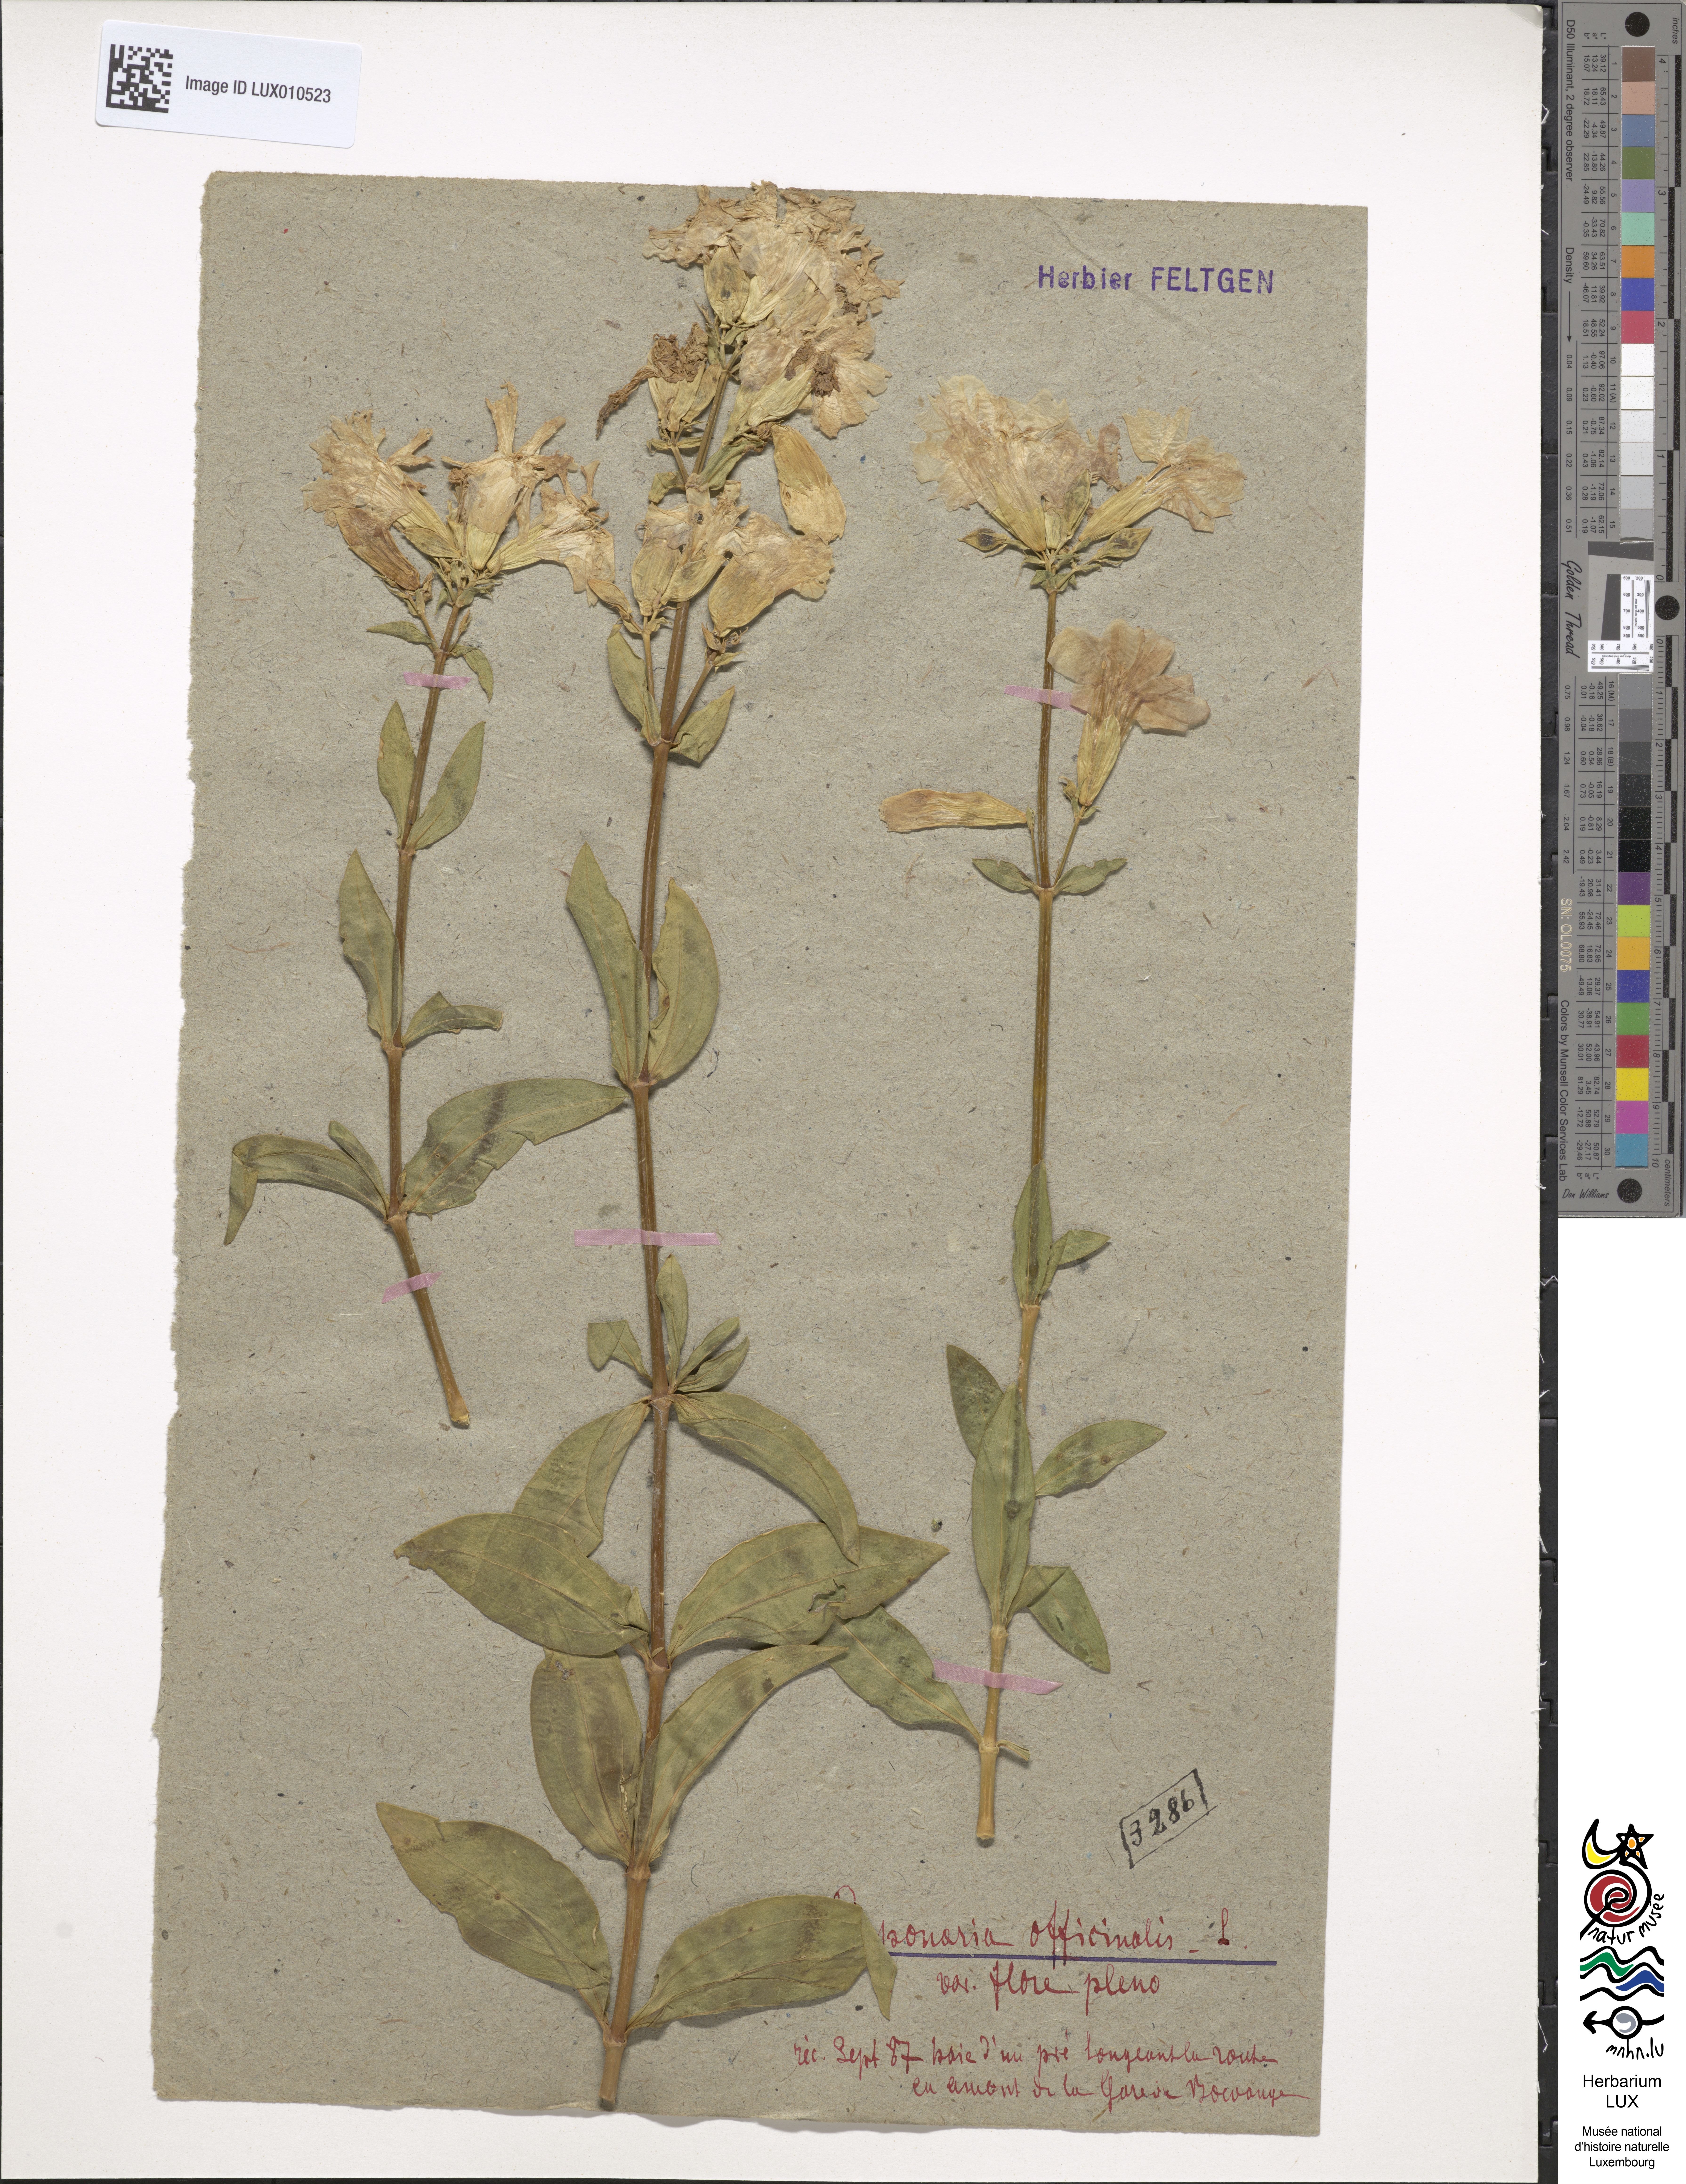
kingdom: Plantae
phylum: Tracheophyta
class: Magnoliopsida
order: Caryophyllales
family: Caryophyllaceae
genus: Saponaria
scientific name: Saponaria officinalis
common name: Soapwort
